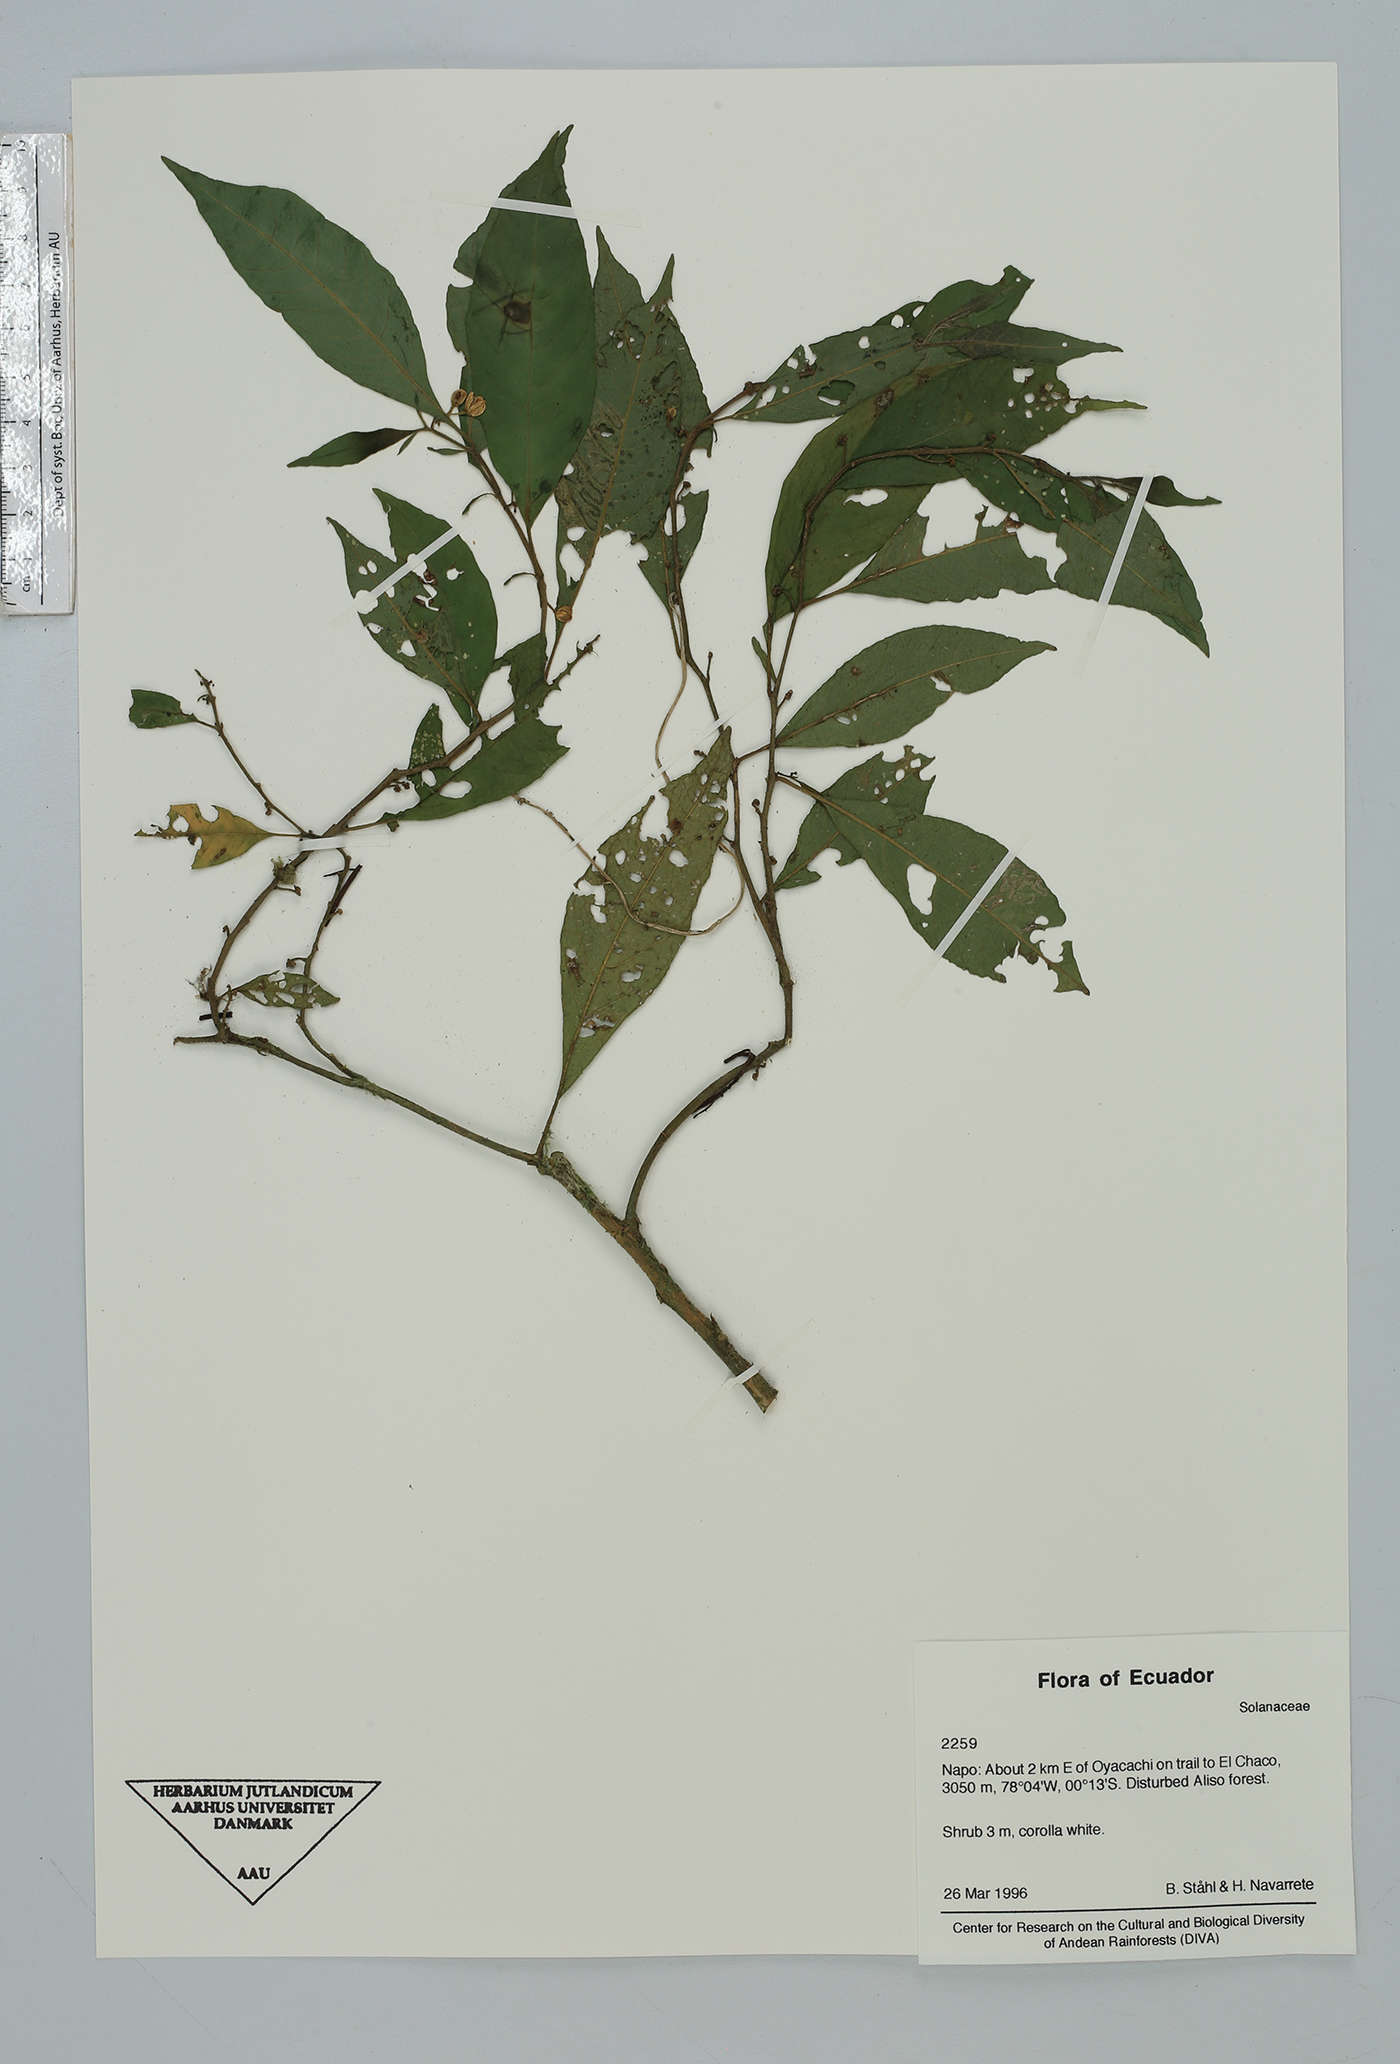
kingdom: Plantae
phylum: Tracheophyta
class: Magnoliopsida
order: Solanales
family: Solanaceae
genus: Solanum
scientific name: Solanum
